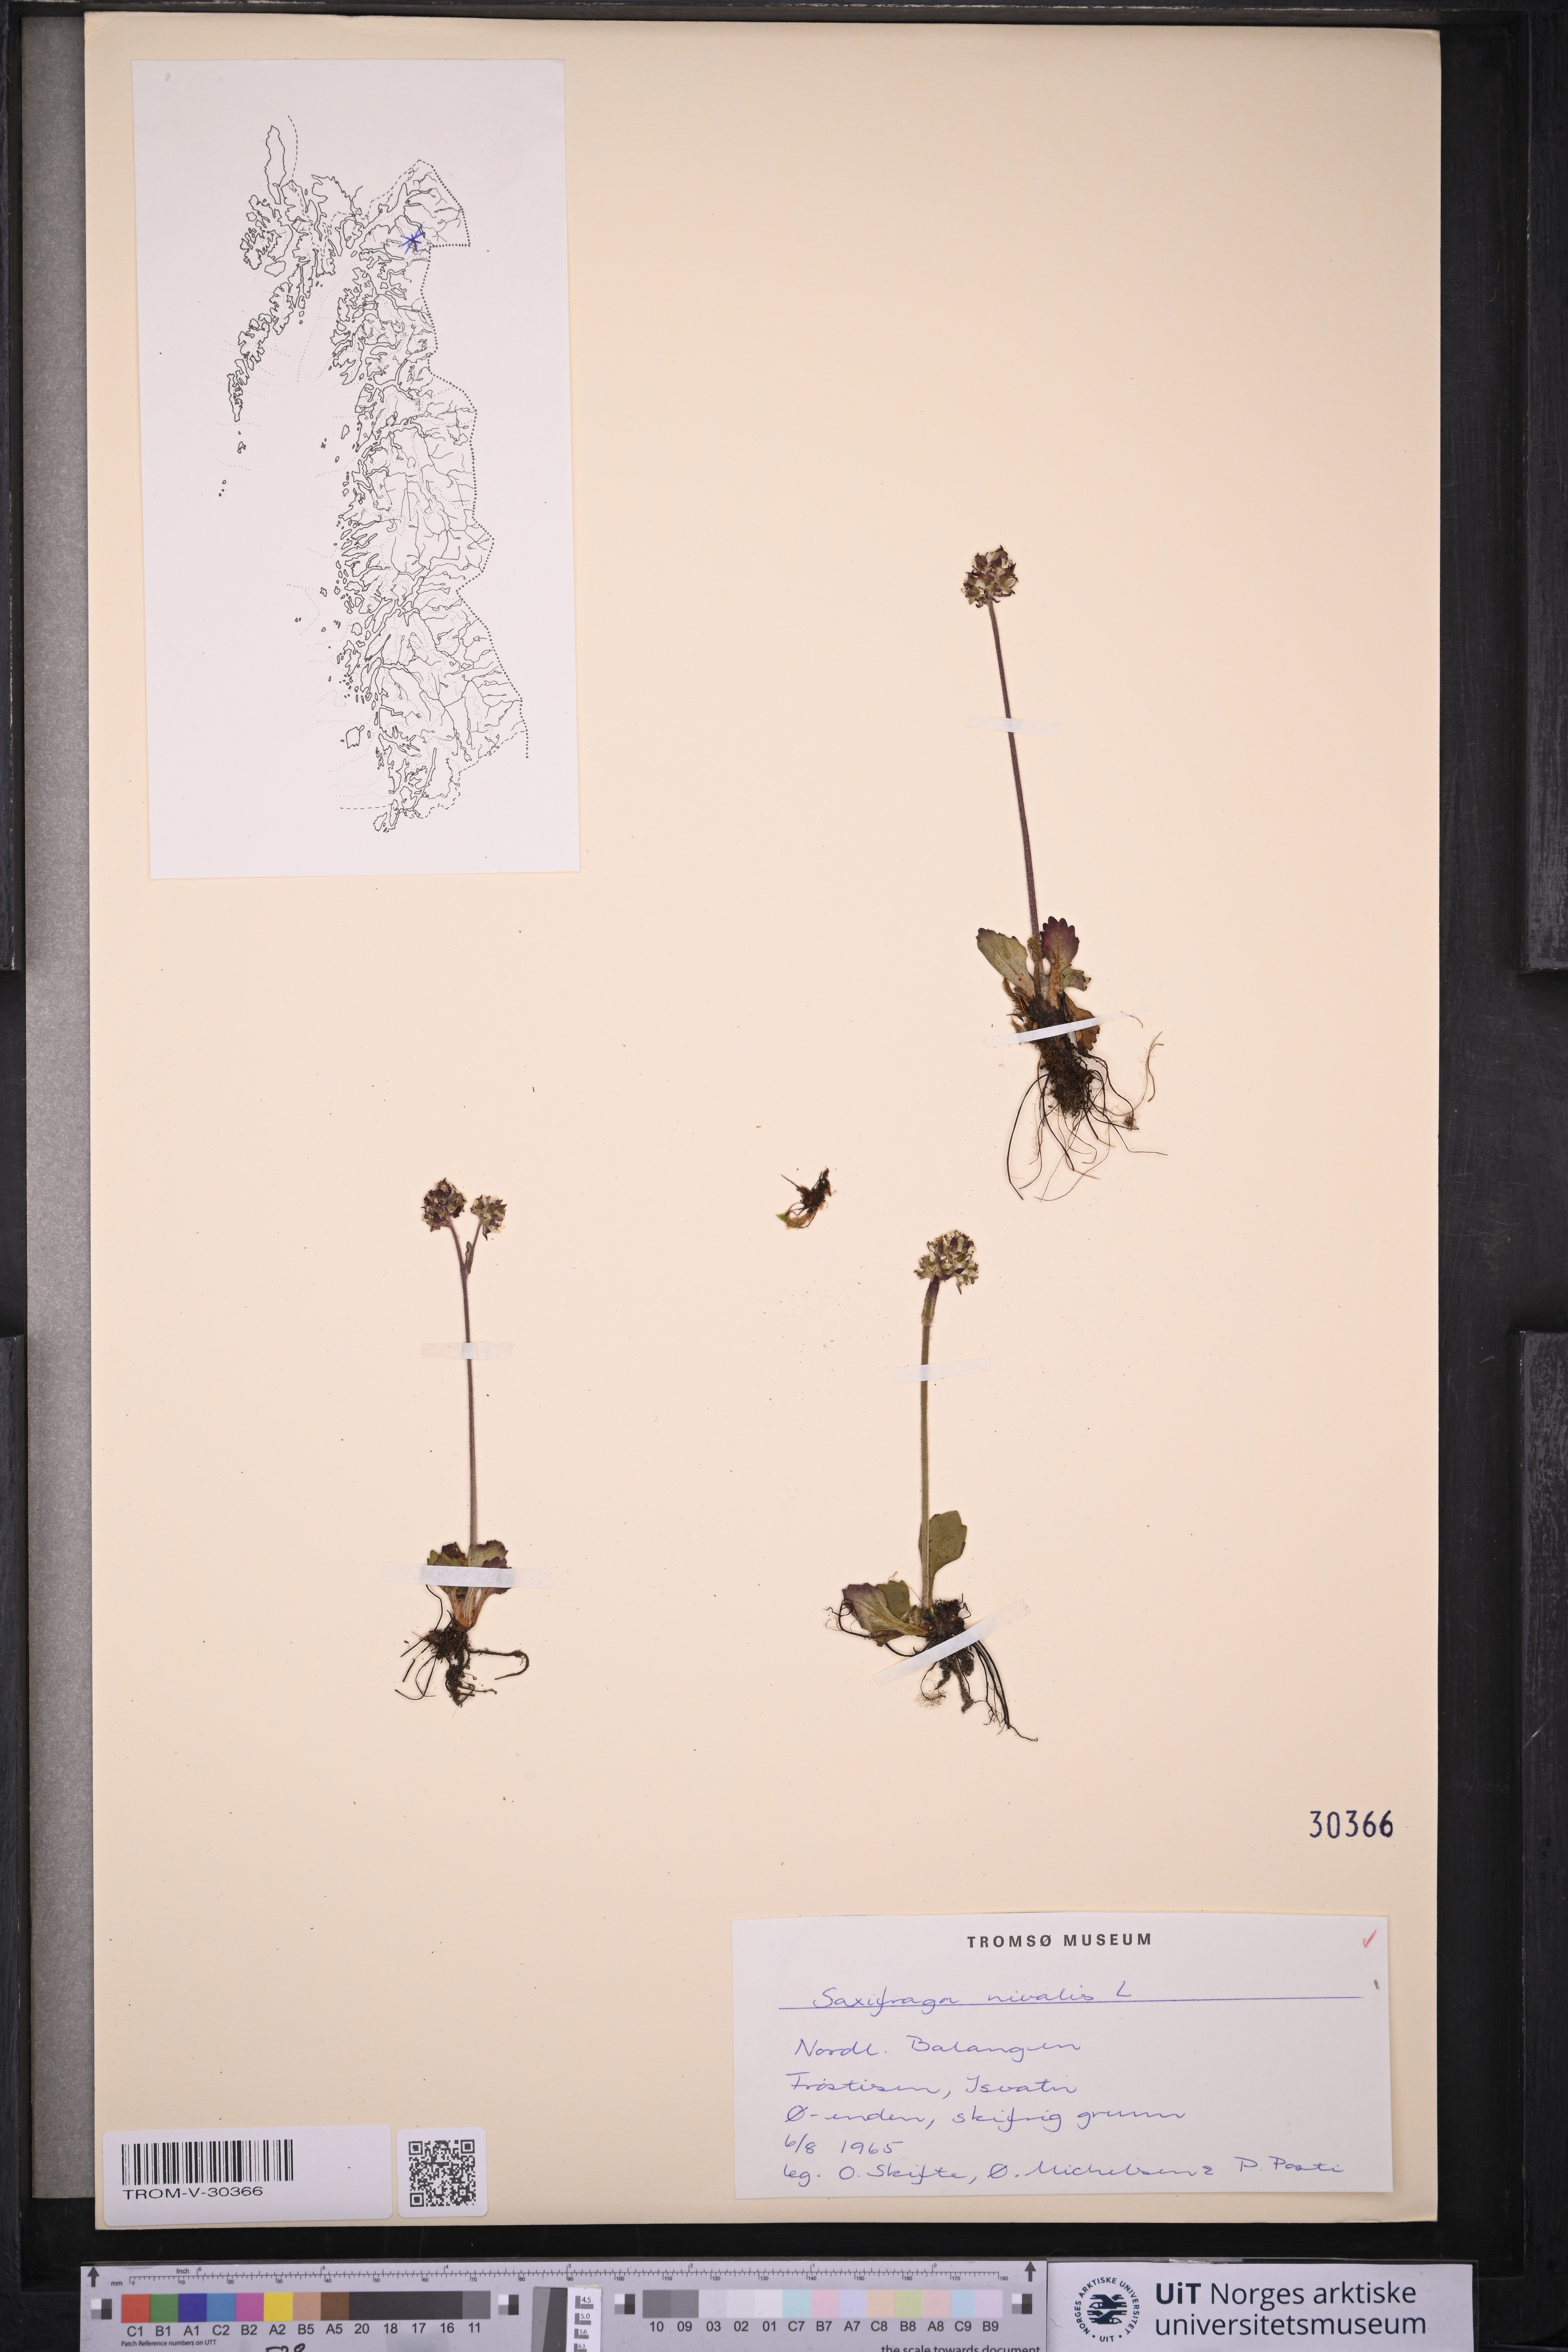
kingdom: Plantae
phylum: Tracheophyta
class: Magnoliopsida
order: Saxifragales
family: Saxifragaceae
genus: Micranthes
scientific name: Micranthes nivalis
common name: Alpine saxifrage
